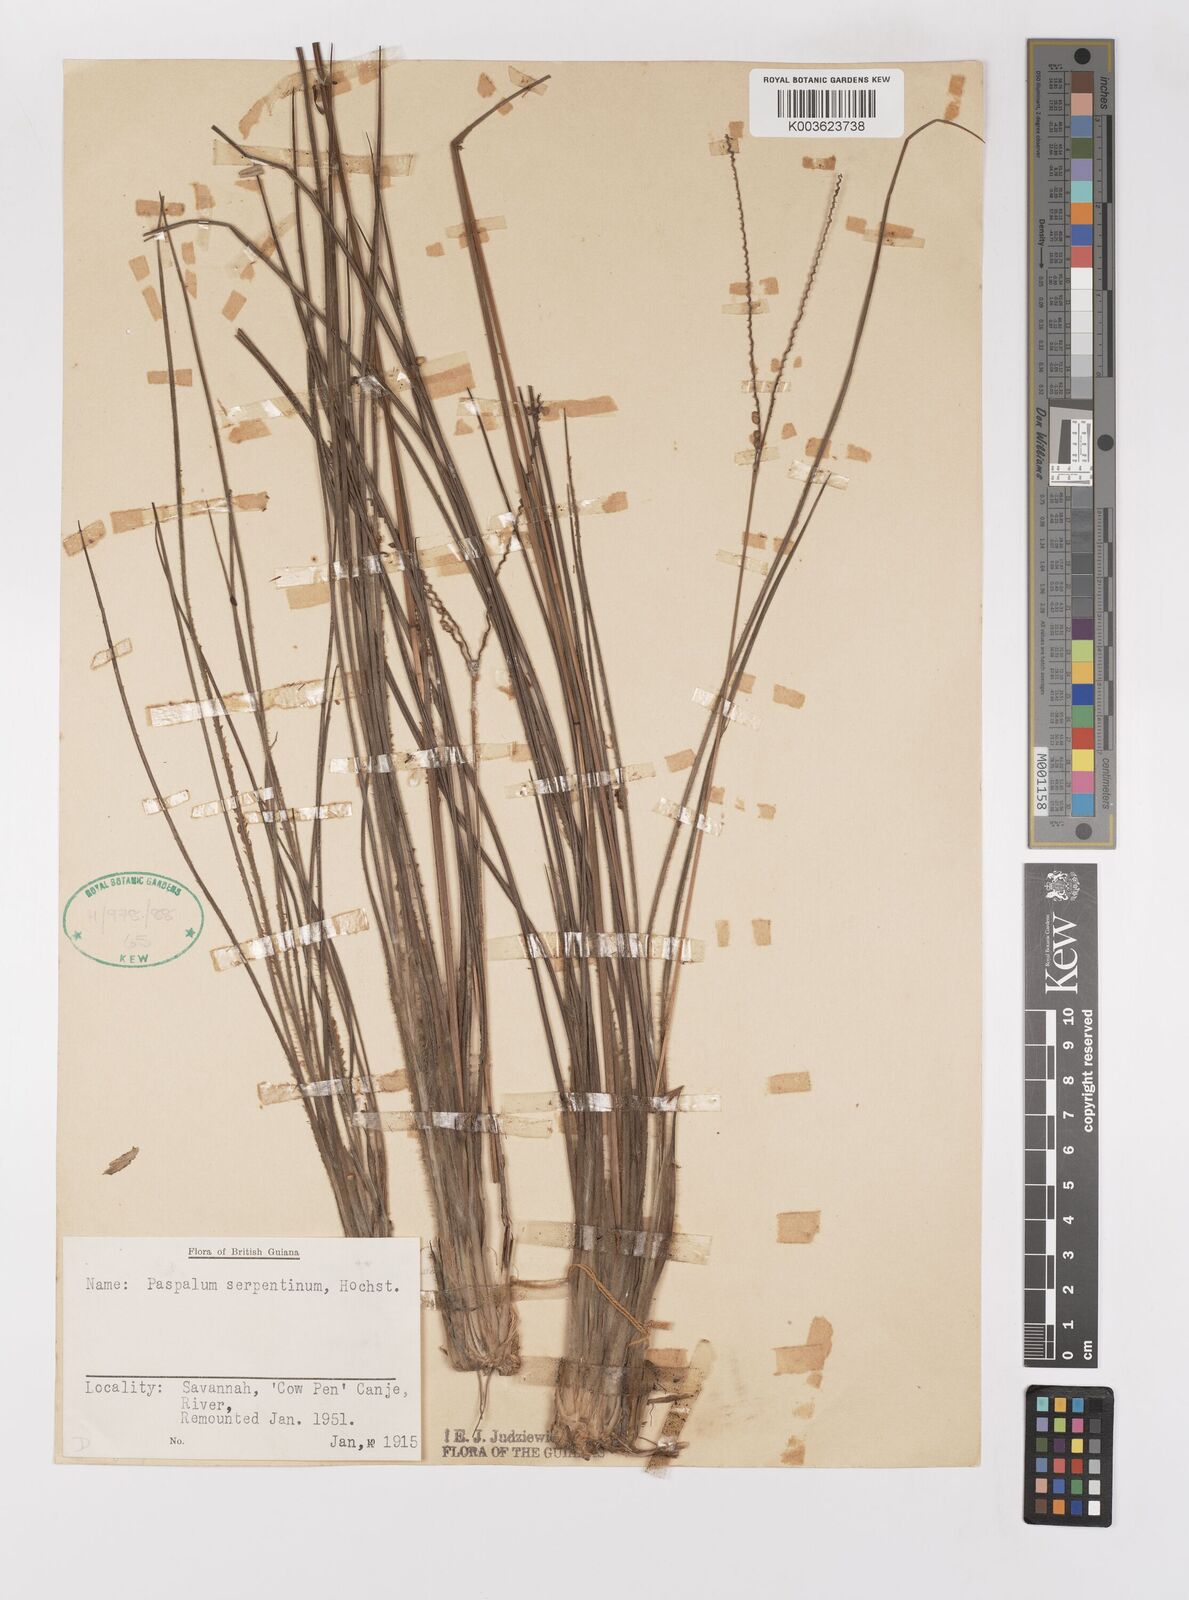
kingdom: Plantae
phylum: Tracheophyta
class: Liliopsida
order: Poales
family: Poaceae
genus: Paspalum
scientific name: Paspalum serpentinum
